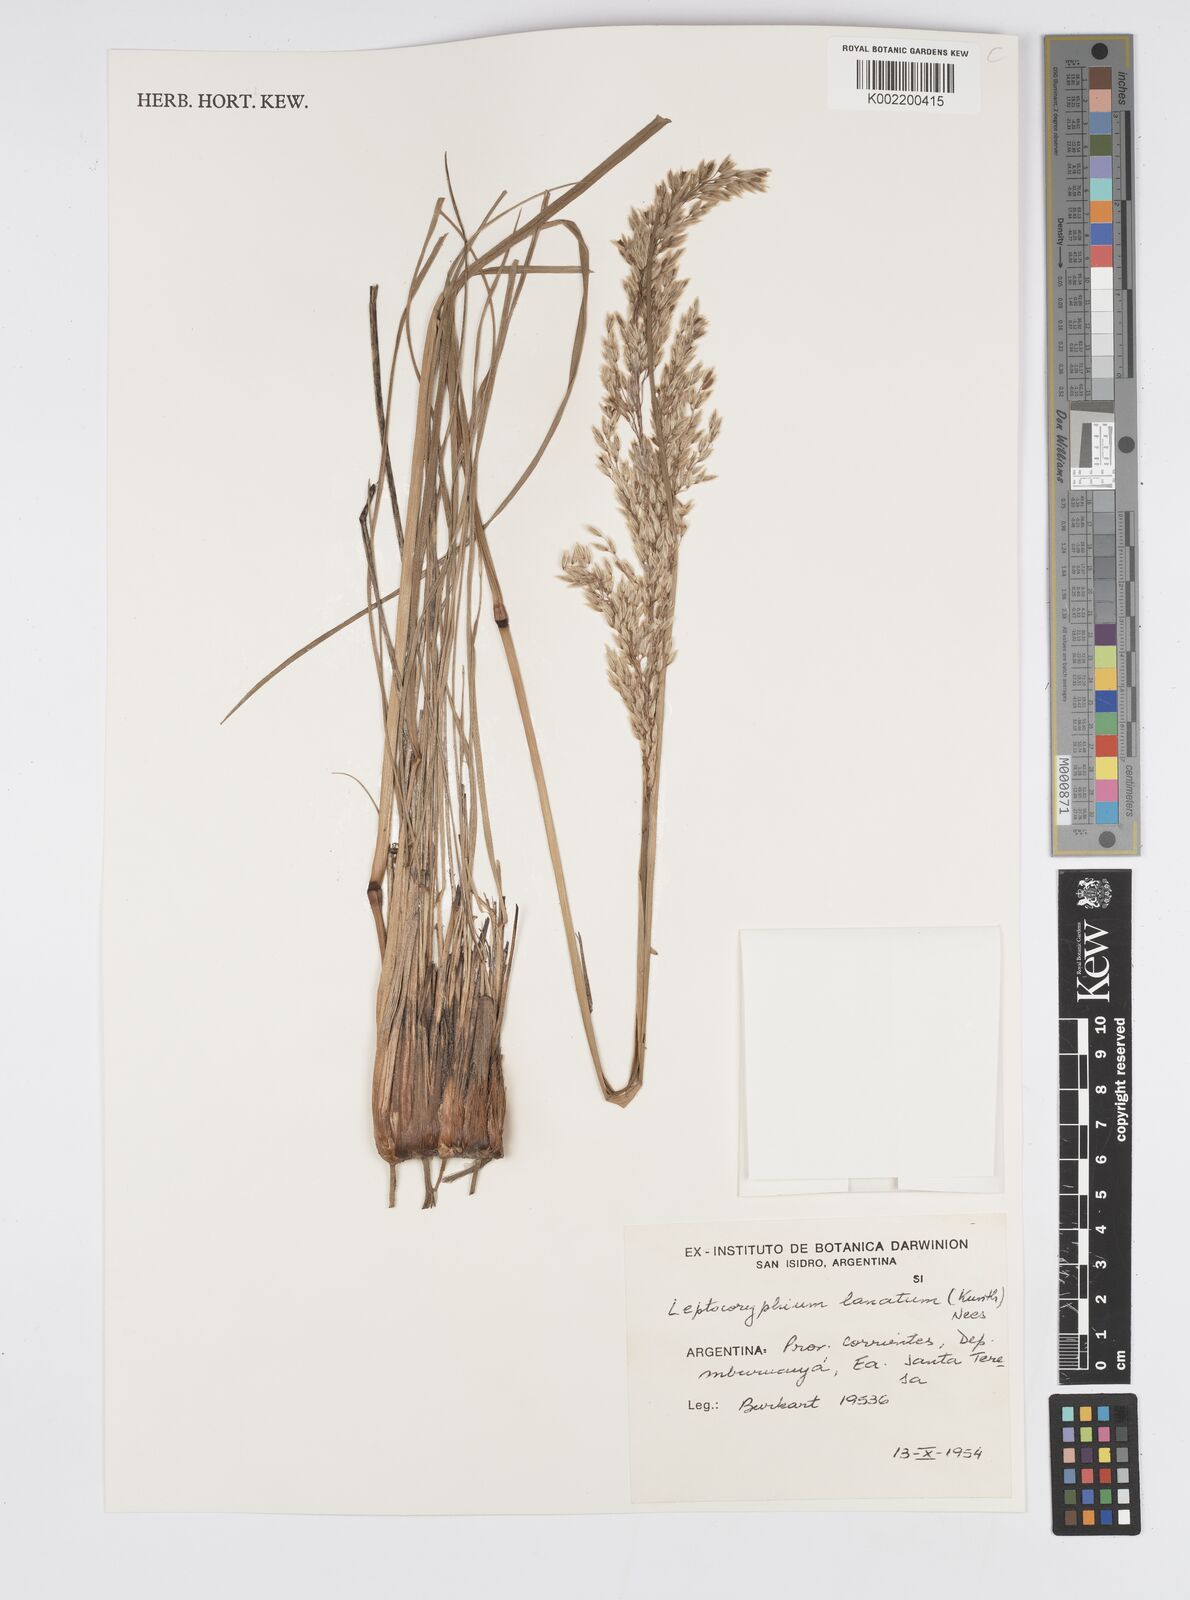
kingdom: Plantae
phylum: Tracheophyta
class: Liliopsida
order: Poales
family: Poaceae
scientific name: Poaceae
